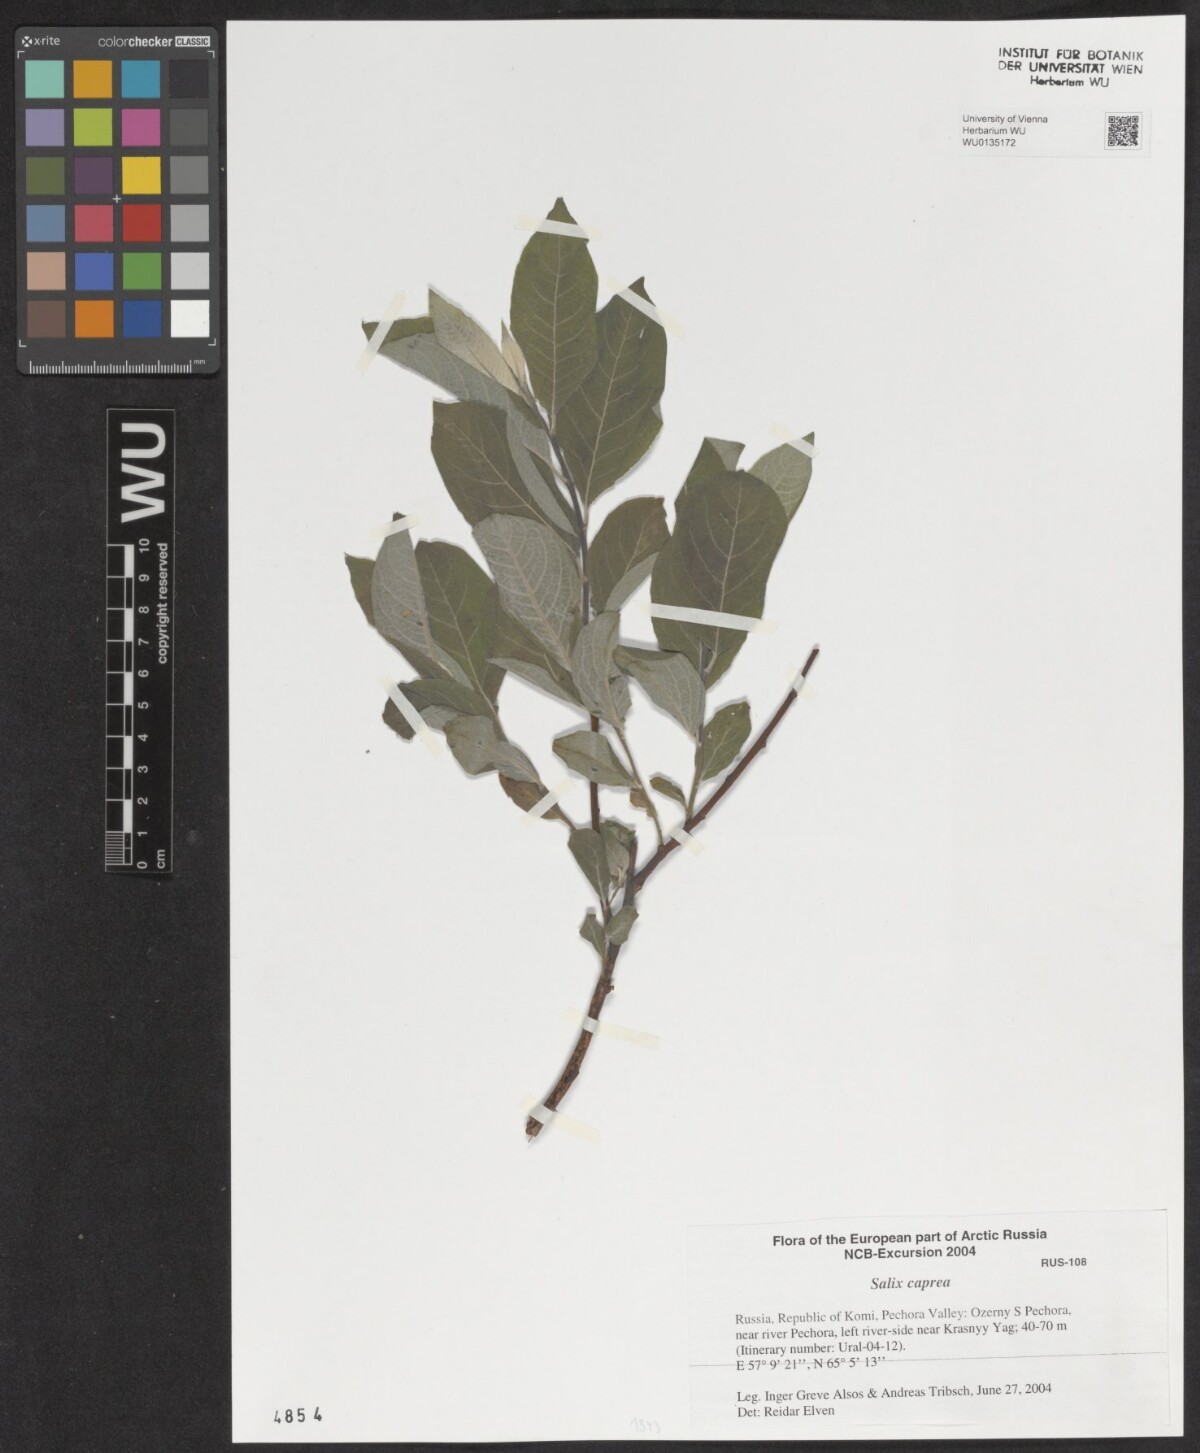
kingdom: Plantae
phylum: Tracheophyta
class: Magnoliopsida
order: Malpighiales
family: Salicaceae
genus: Salix
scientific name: Salix caprea
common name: Goat willow
